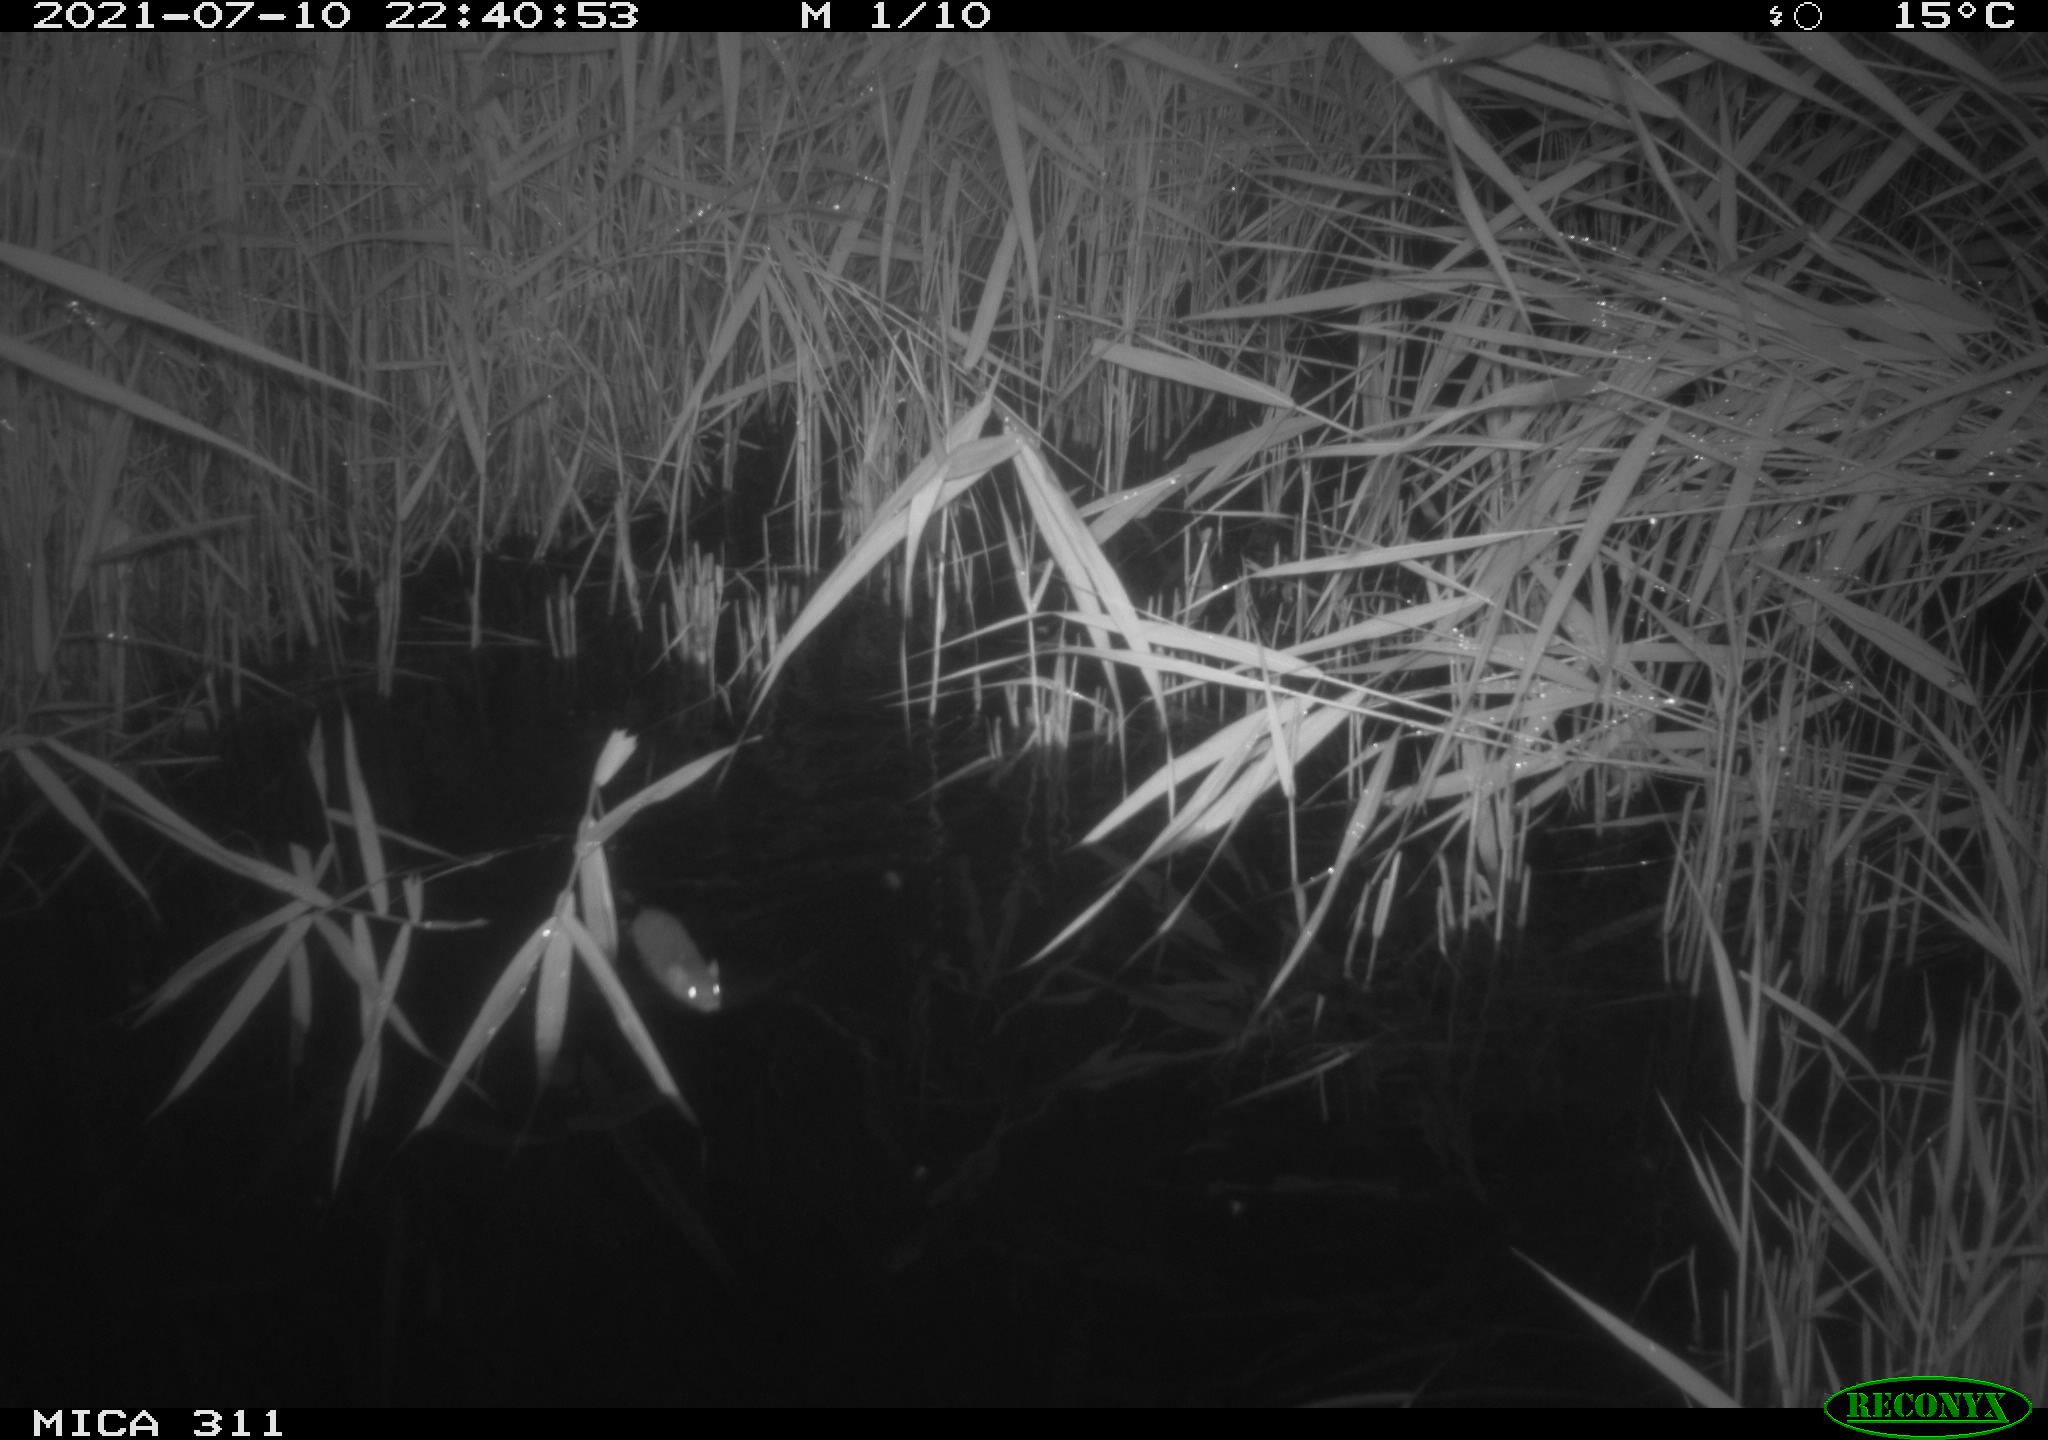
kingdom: Animalia
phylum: Chordata
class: Mammalia
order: Rodentia
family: Muridae
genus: Rattus
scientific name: Rattus norvegicus
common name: Brown rat
